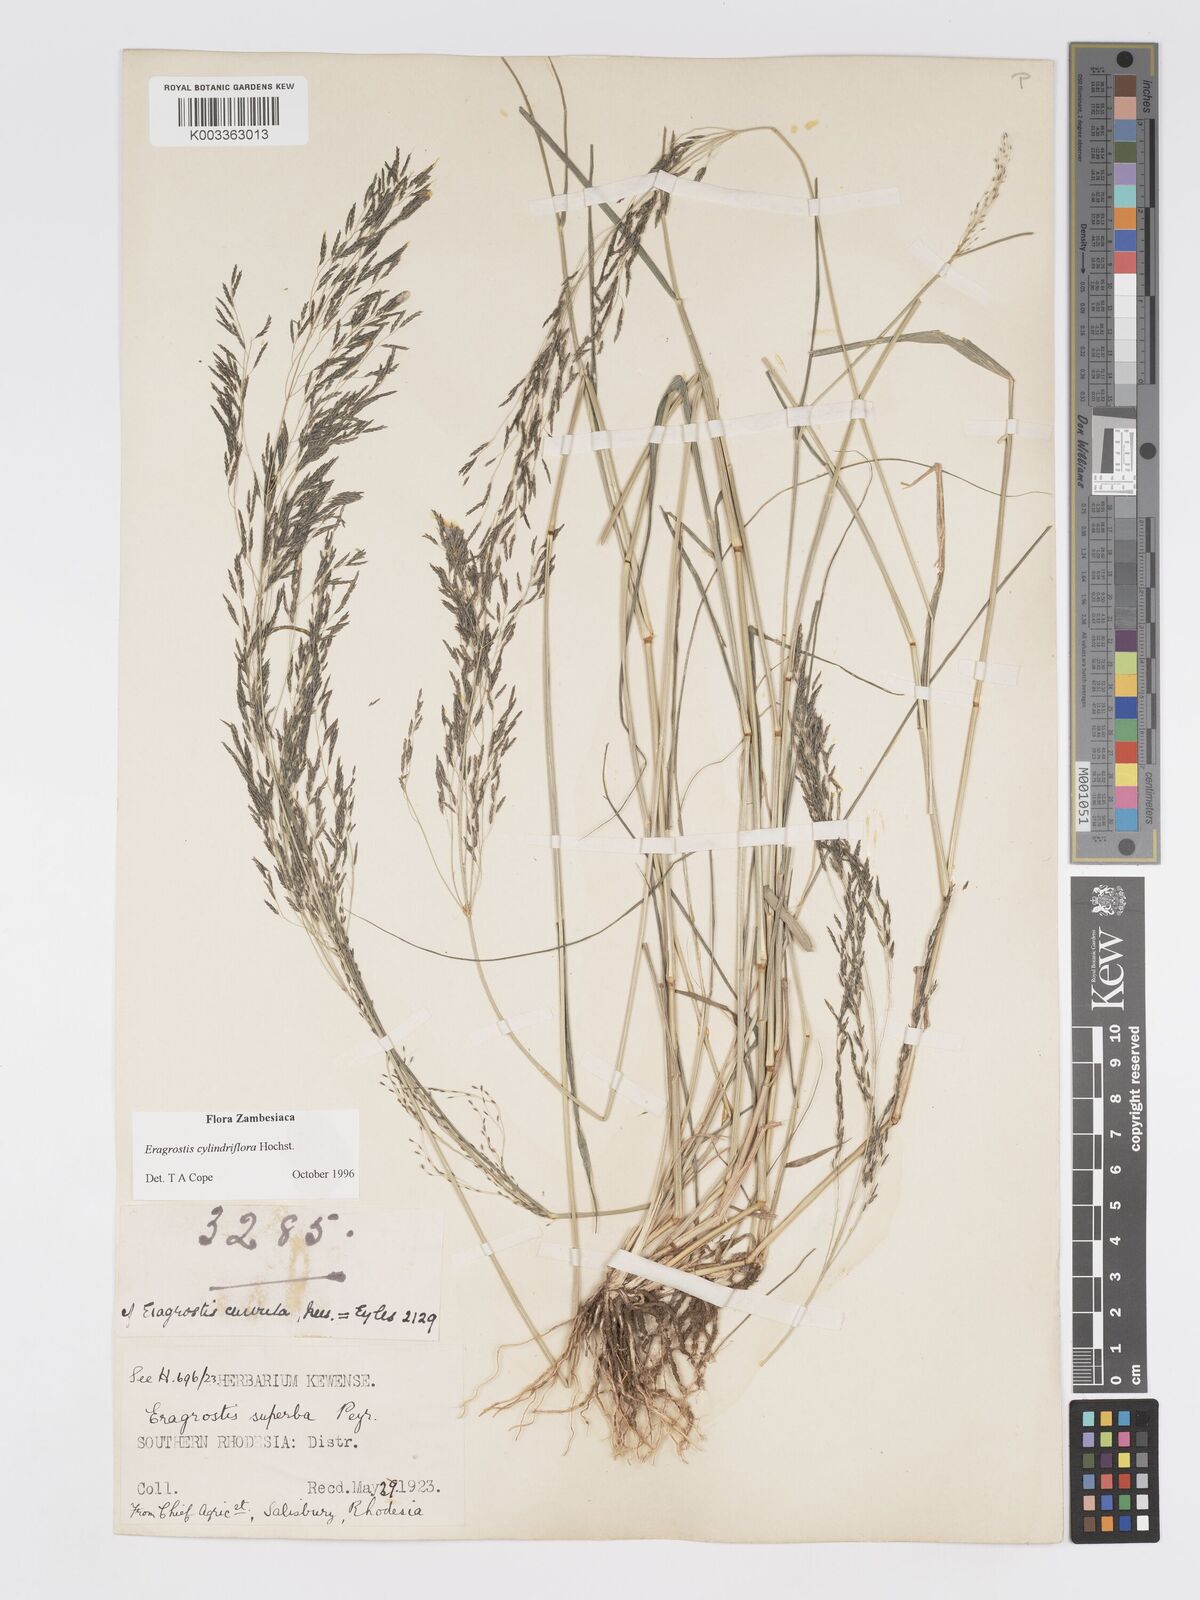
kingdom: Plantae
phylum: Tracheophyta
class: Liliopsida
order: Poales
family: Poaceae
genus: Eragrostis
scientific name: Eragrostis cylindriflora
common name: Cylinderflower lovegrass
